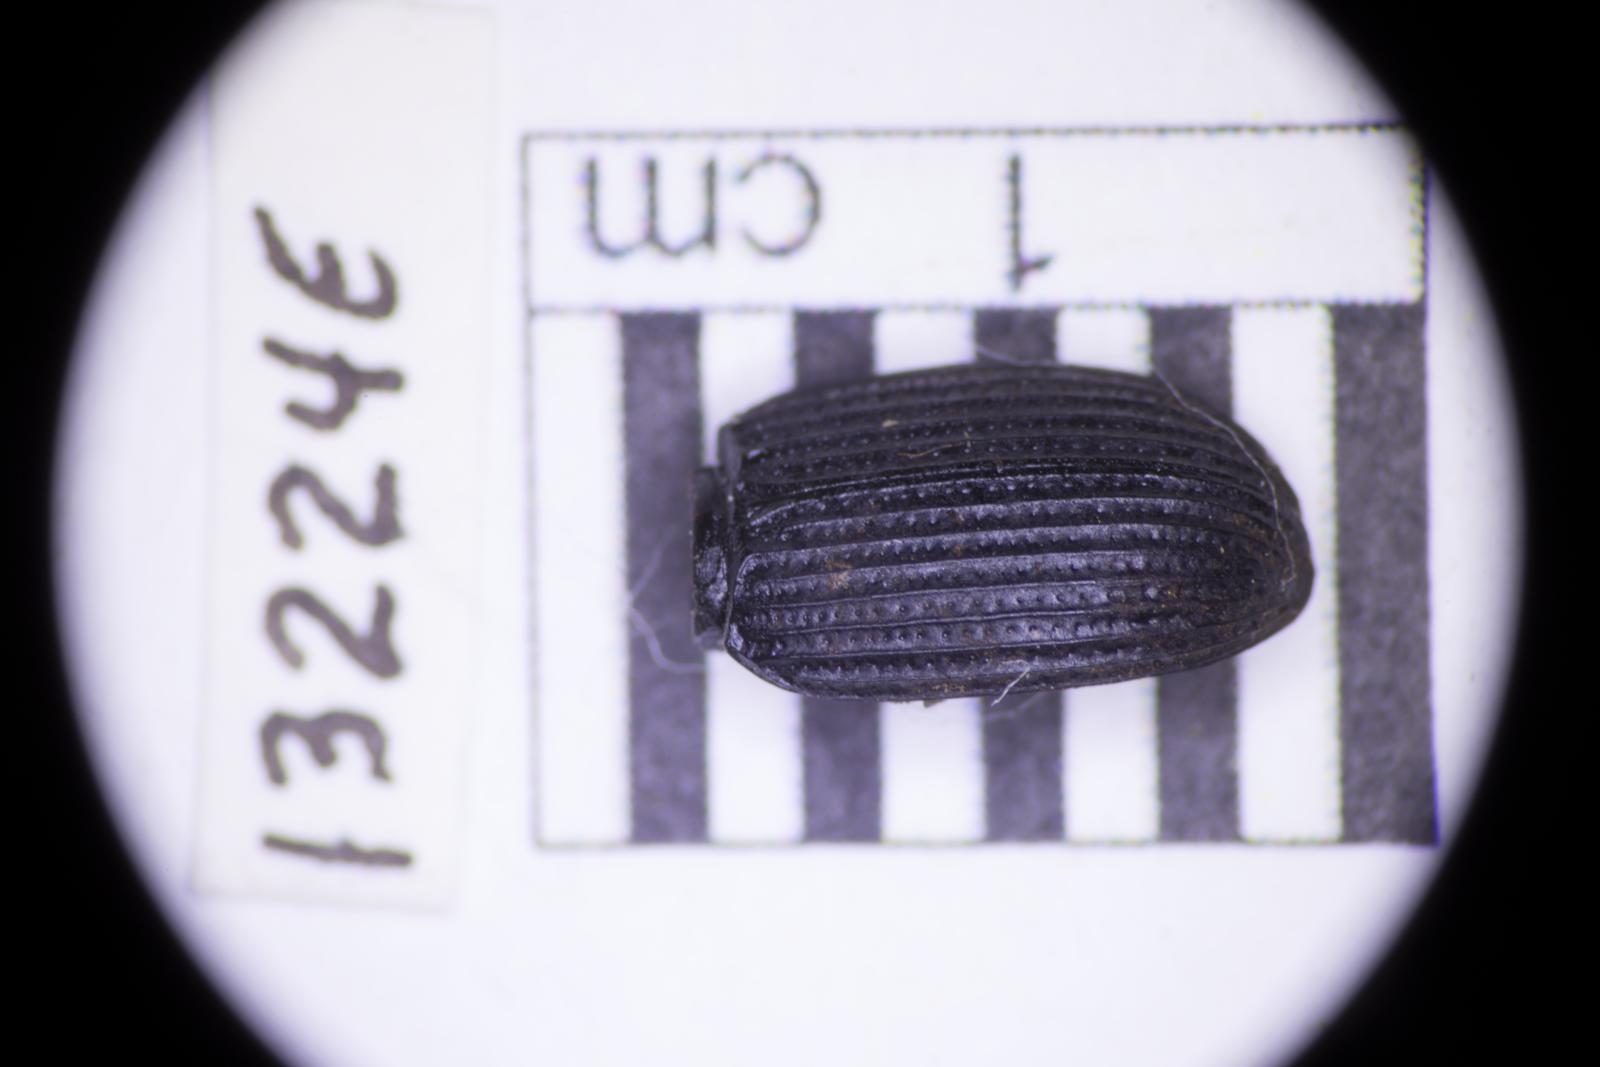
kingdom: Animalia
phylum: Arthropoda
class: Insecta
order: Coleoptera
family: Tenebrionidae
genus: Apsena
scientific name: Apsena laticornis
